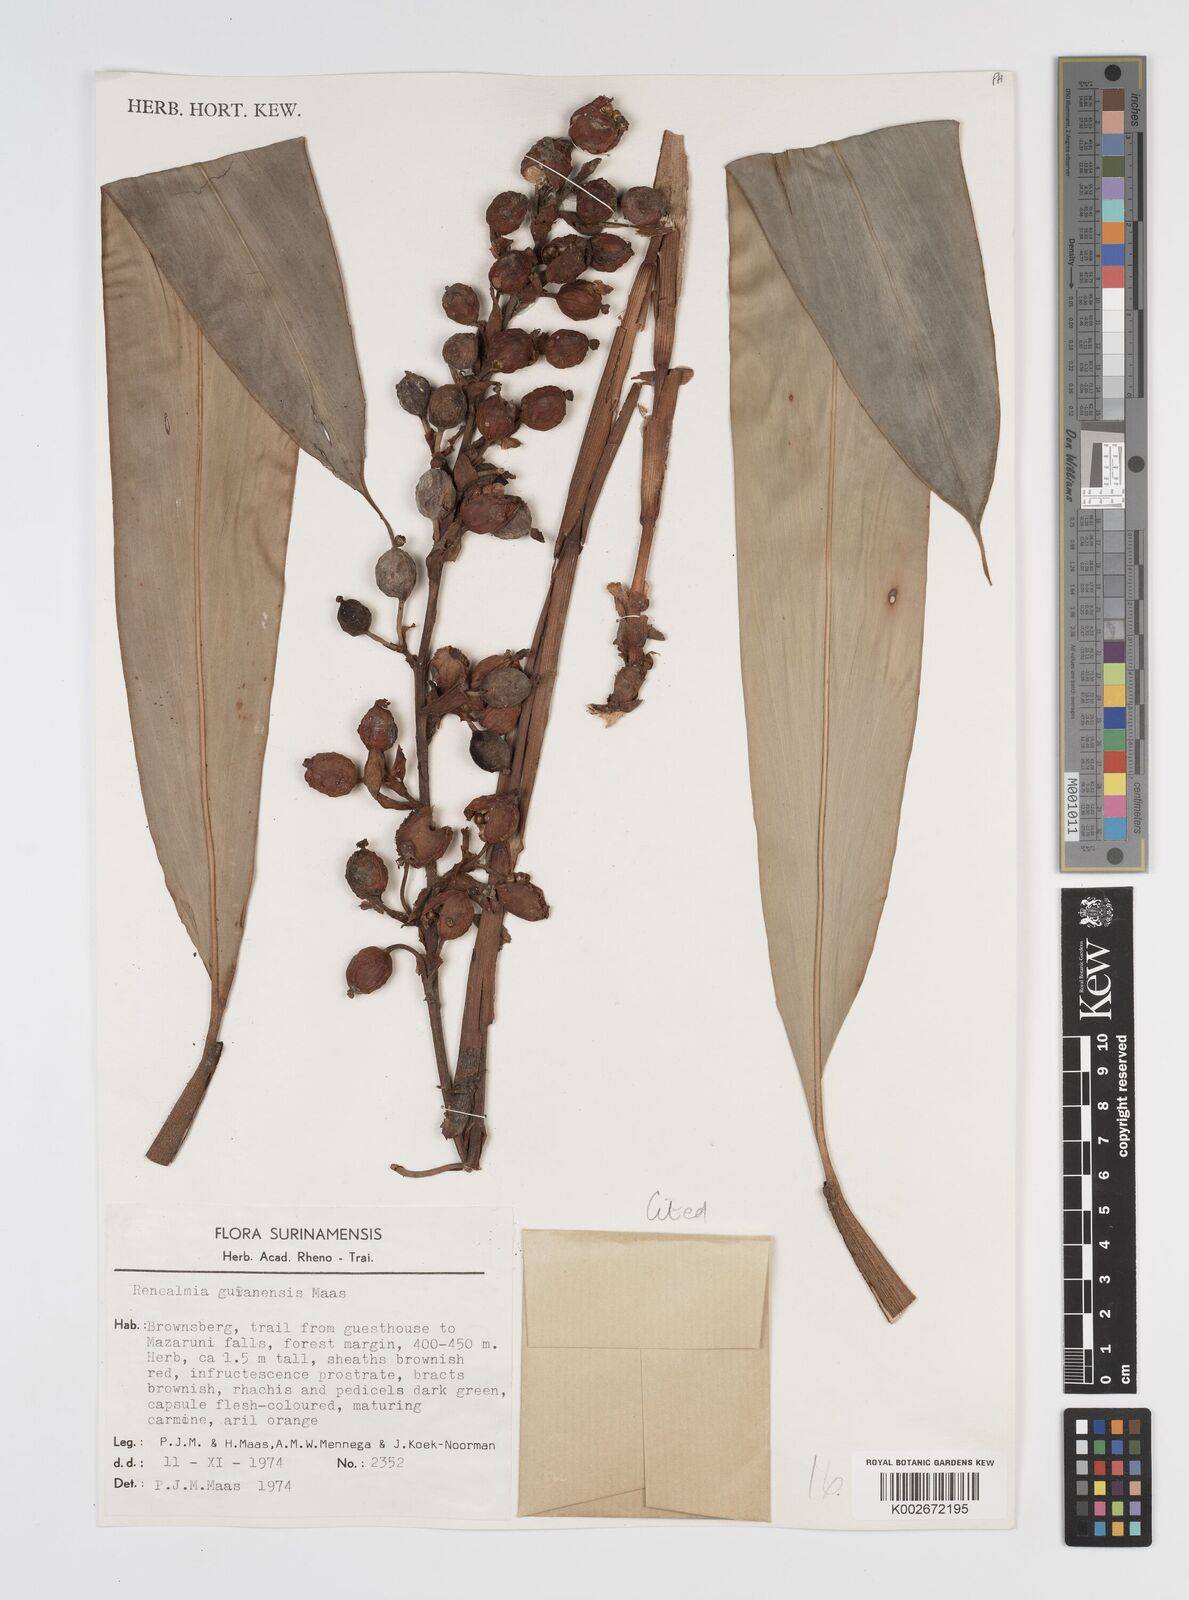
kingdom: Plantae
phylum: Tracheophyta
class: Liliopsida
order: Zingiberales
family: Zingiberaceae
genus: Renealmia
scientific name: Renealmia guianensis
